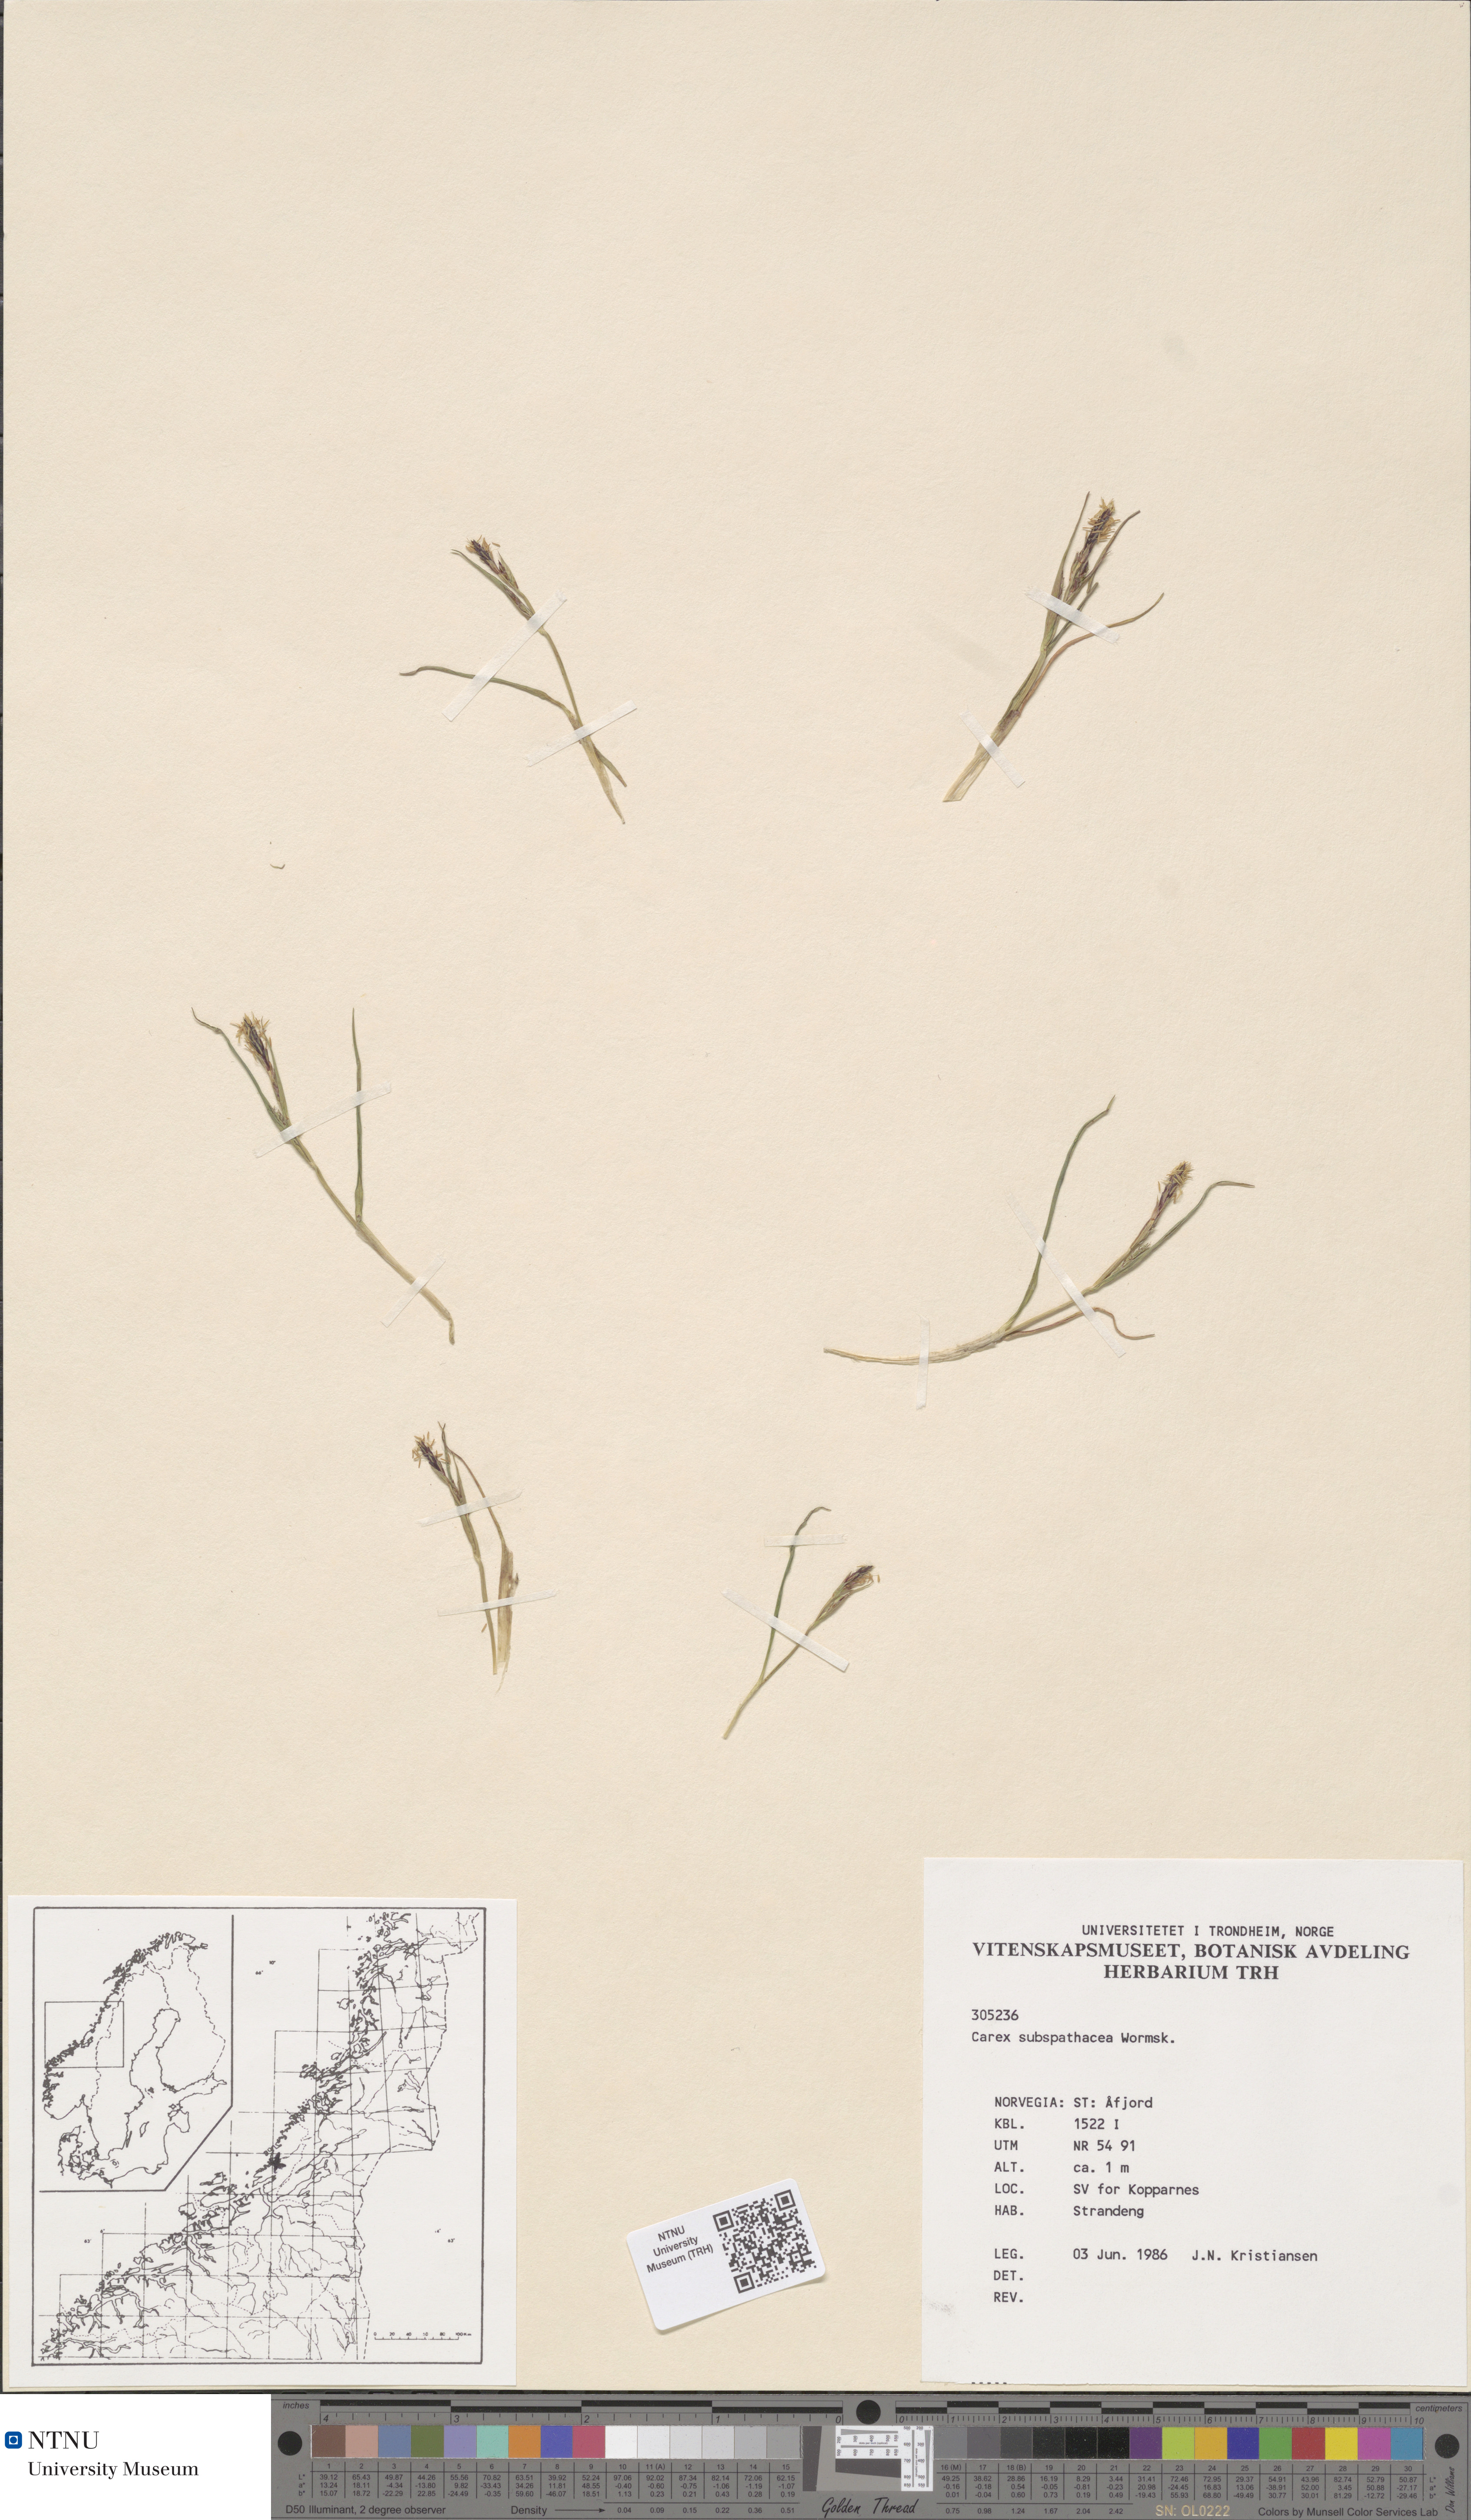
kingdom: Plantae
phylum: Tracheophyta
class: Liliopsida
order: Poales
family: Cyperaceae
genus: Carex
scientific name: Carex subspathacea
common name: Hoppner's sedge
